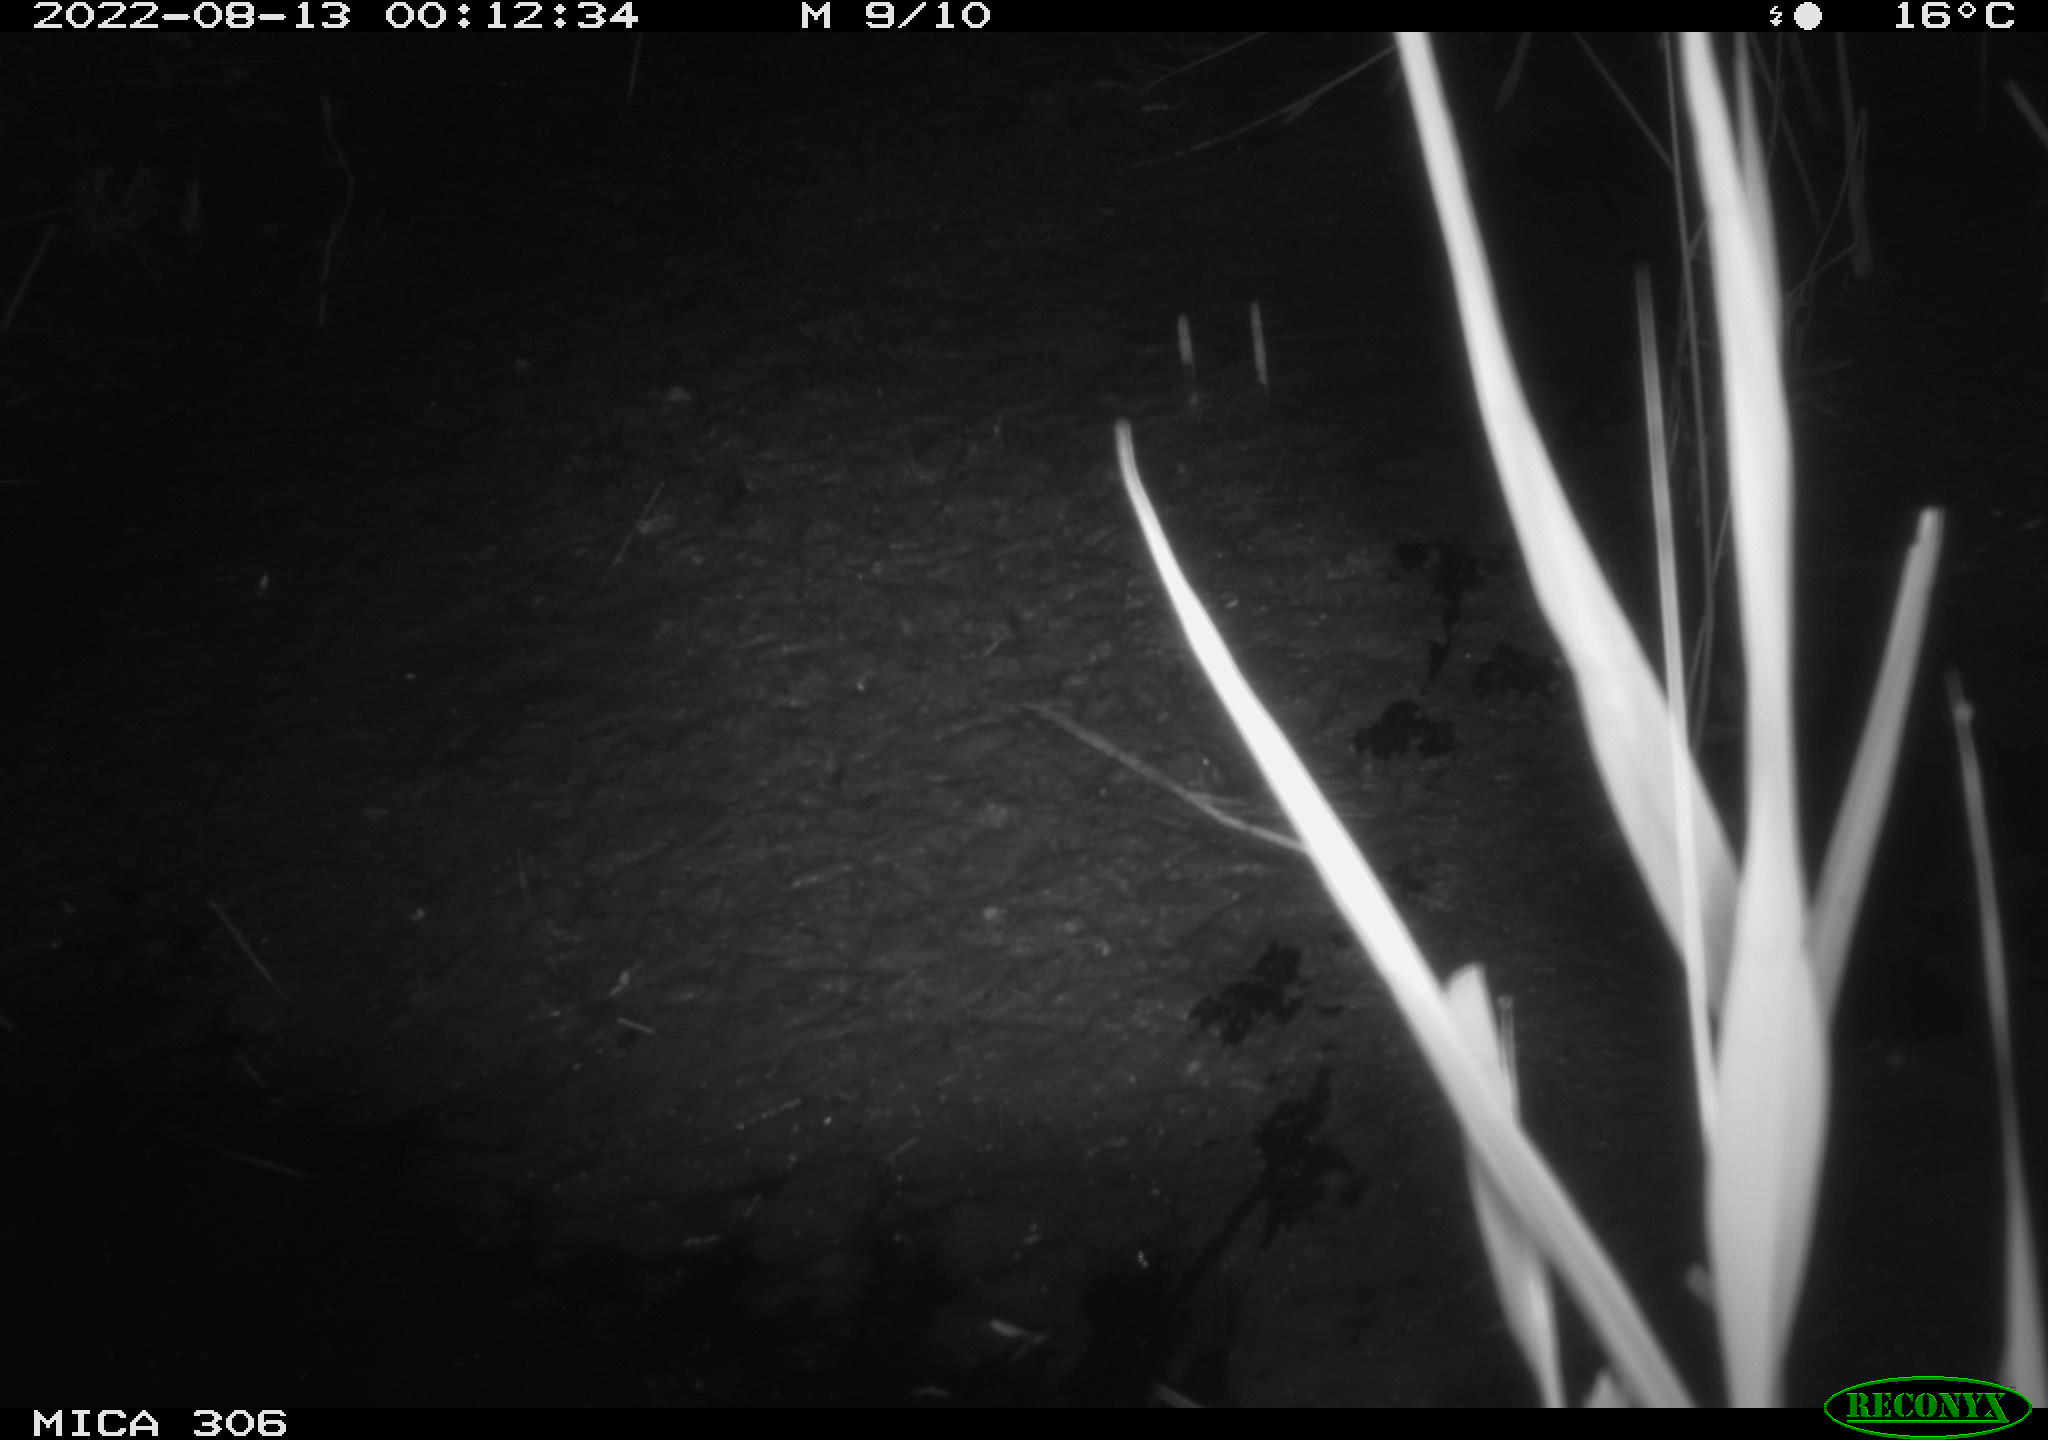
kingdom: Animalia
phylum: Chordata
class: Mammalia
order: Rodentia
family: Cricetidae
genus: Ondatra
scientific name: Ondatra zibethicus
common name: Muskrat
